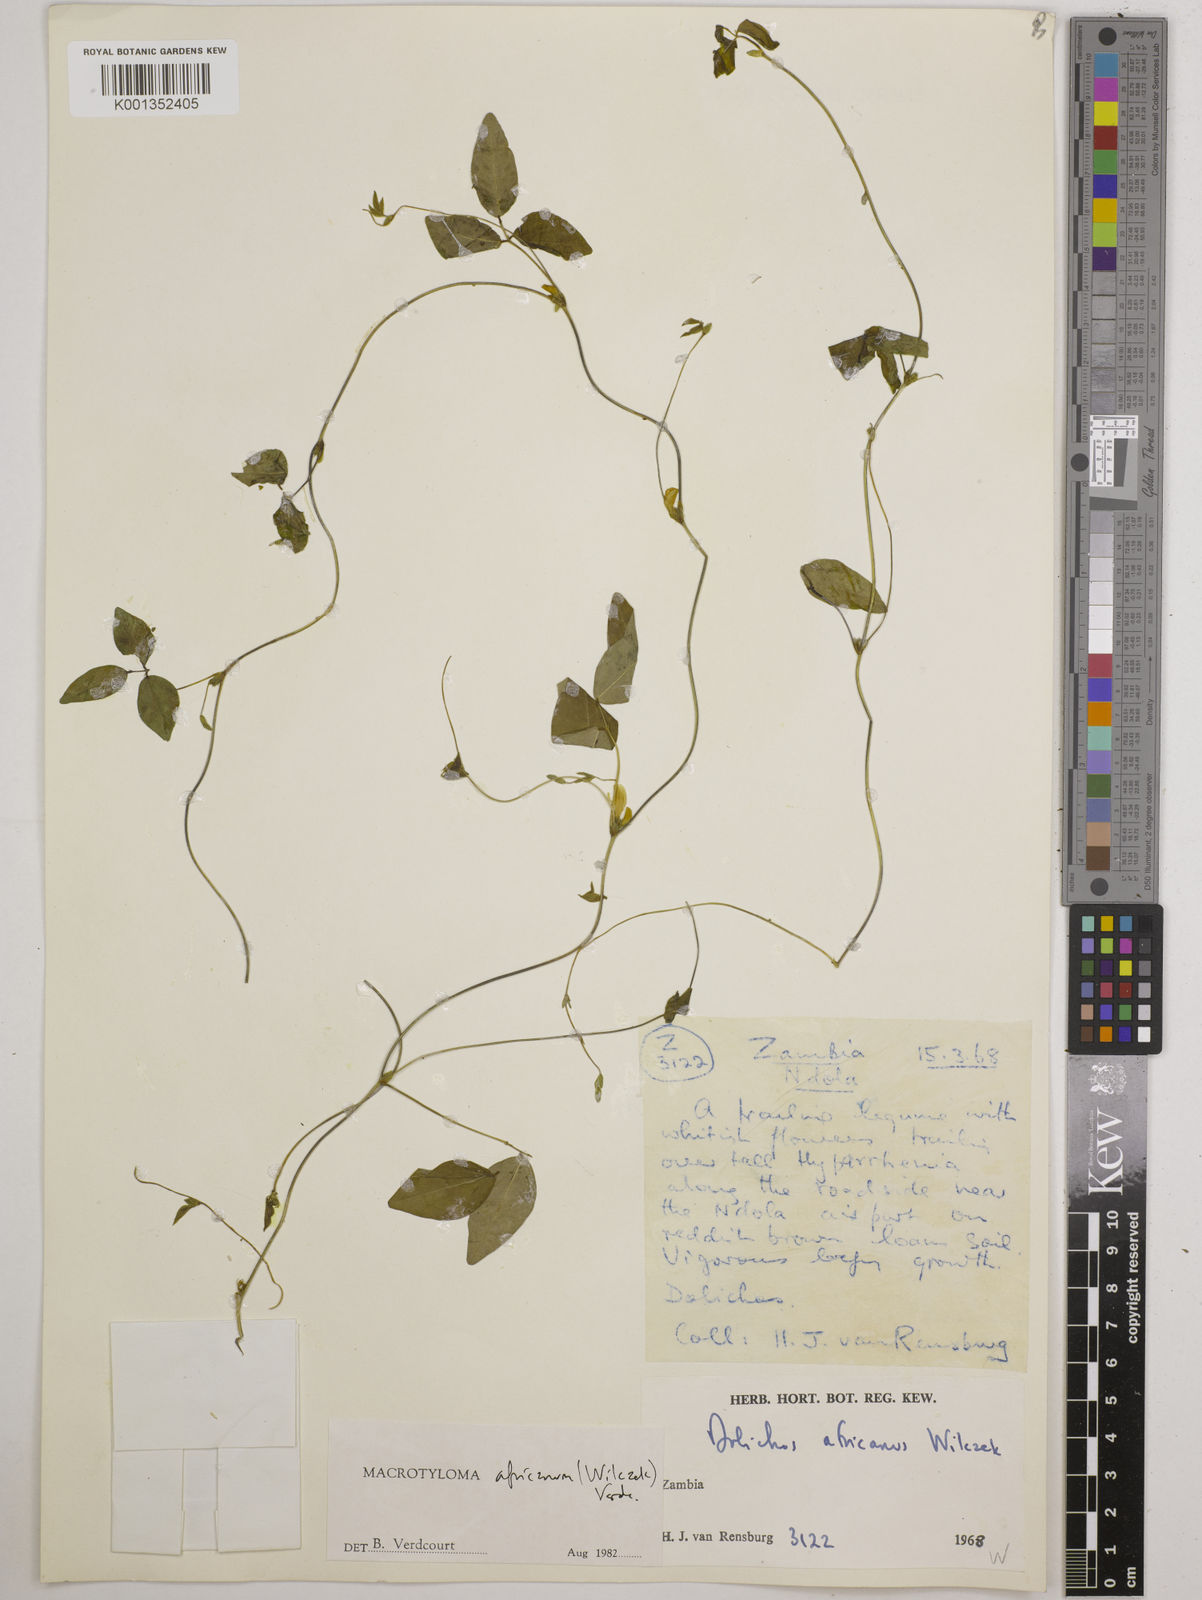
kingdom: Plantae
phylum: Tracheophyta
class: Magnoliopsida
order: Fabales
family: Fabaceae
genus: Macrotyloma
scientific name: Macrotyloma africanum
